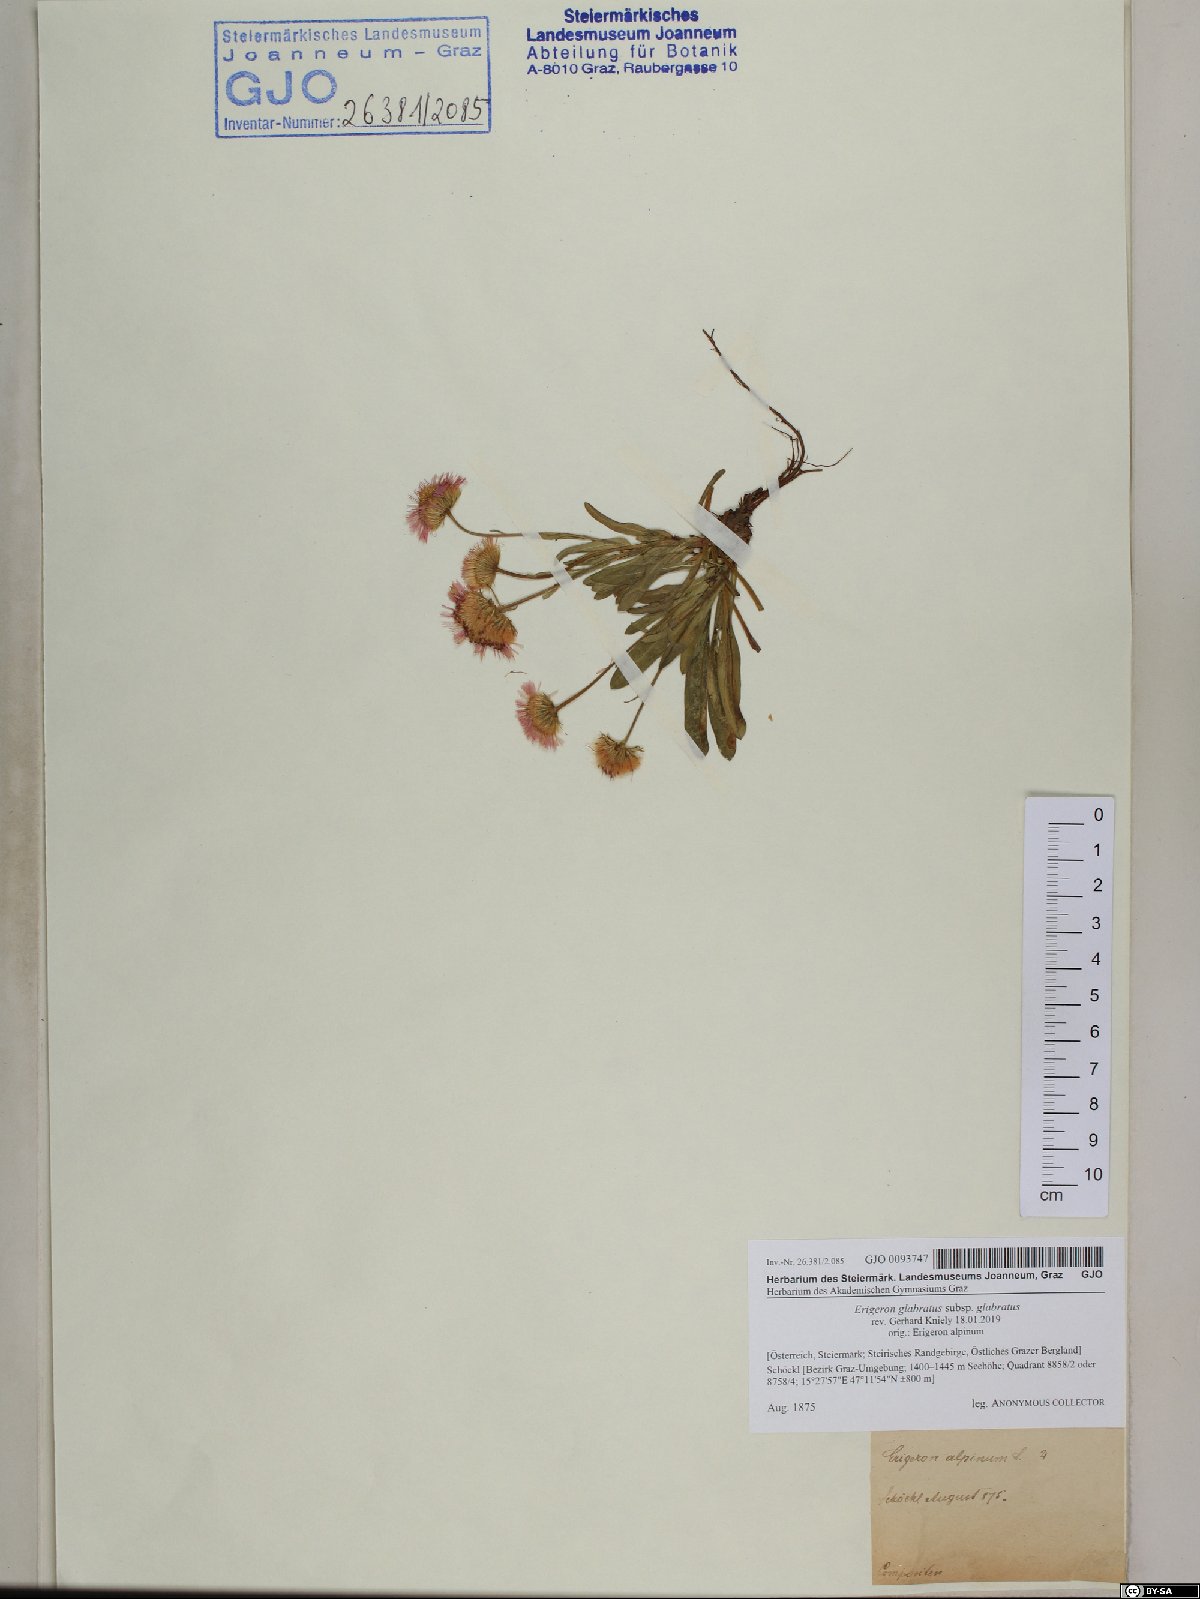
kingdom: Plantae
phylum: Tracheophyta
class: Magnoliopsida
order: Asterales
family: Asteraceae
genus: Erigeron
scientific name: Erigeron glabratus
